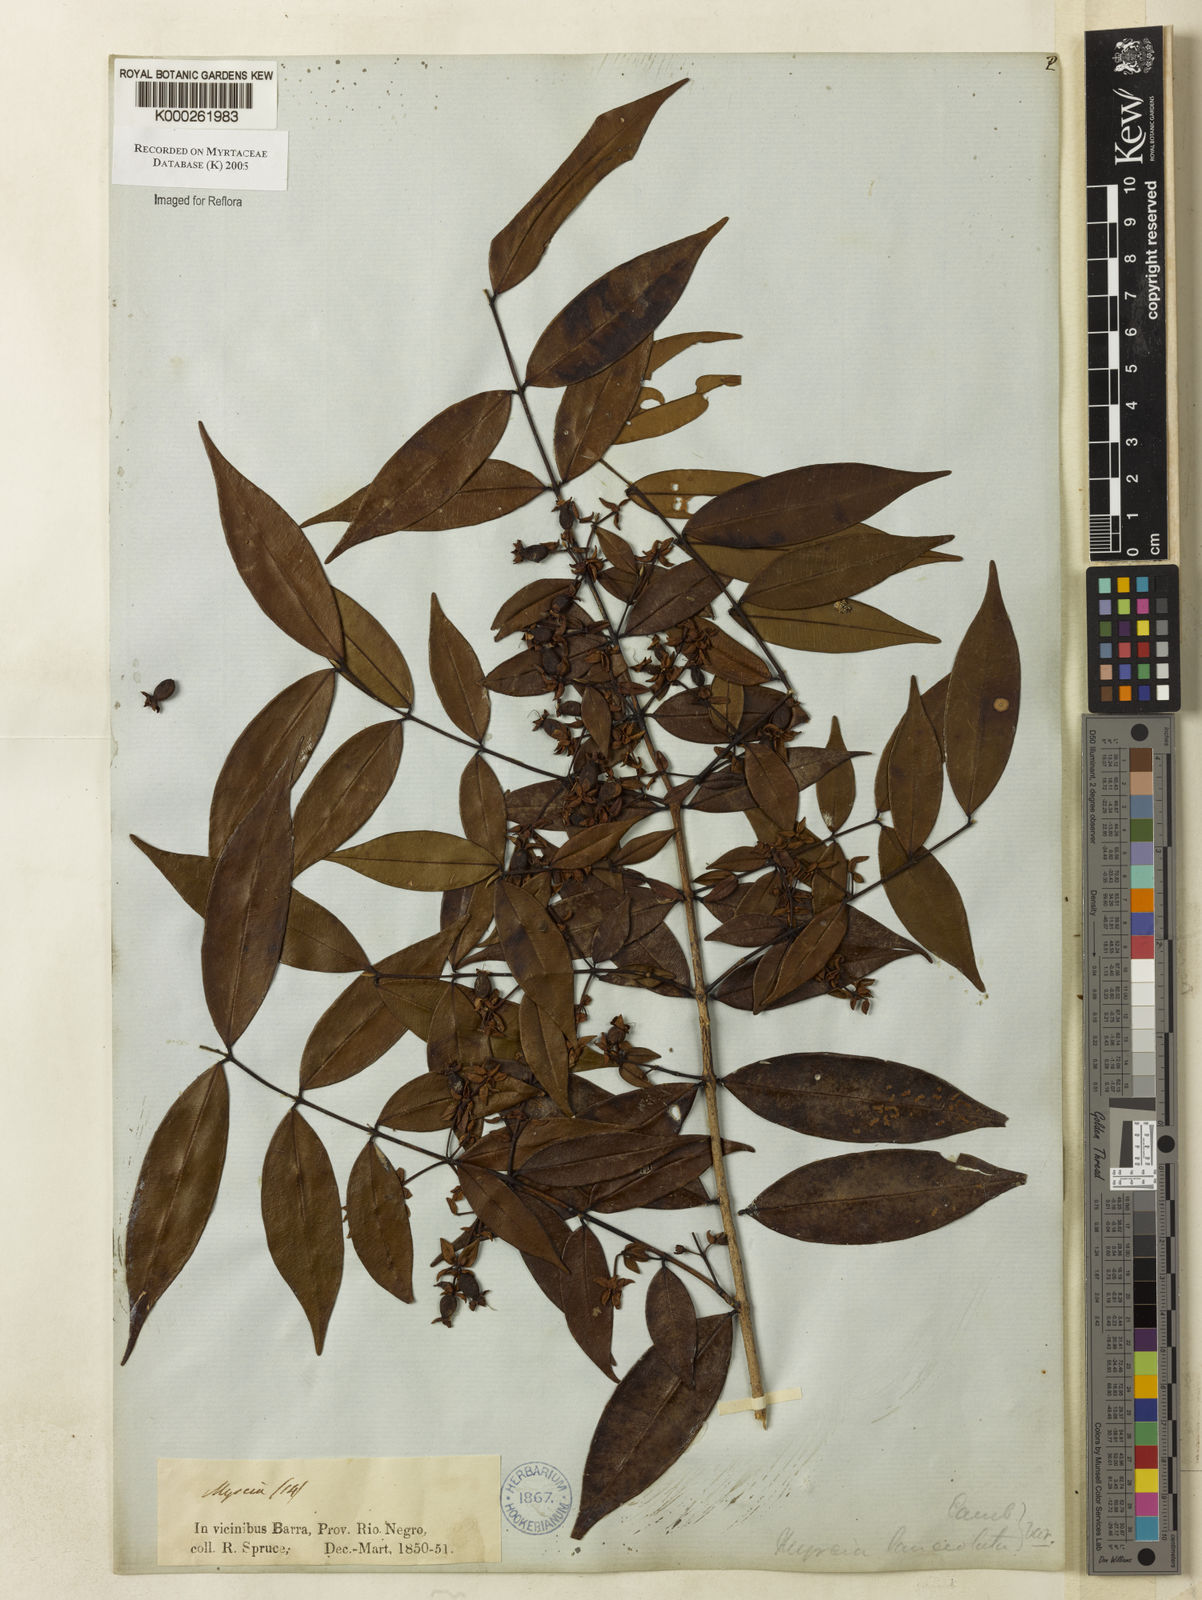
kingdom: Plantae
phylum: Tracheophyta
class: Magnoliopsida
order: Myrtales
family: Myrtaceae
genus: Myrcia
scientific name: Myrcia bracteata
